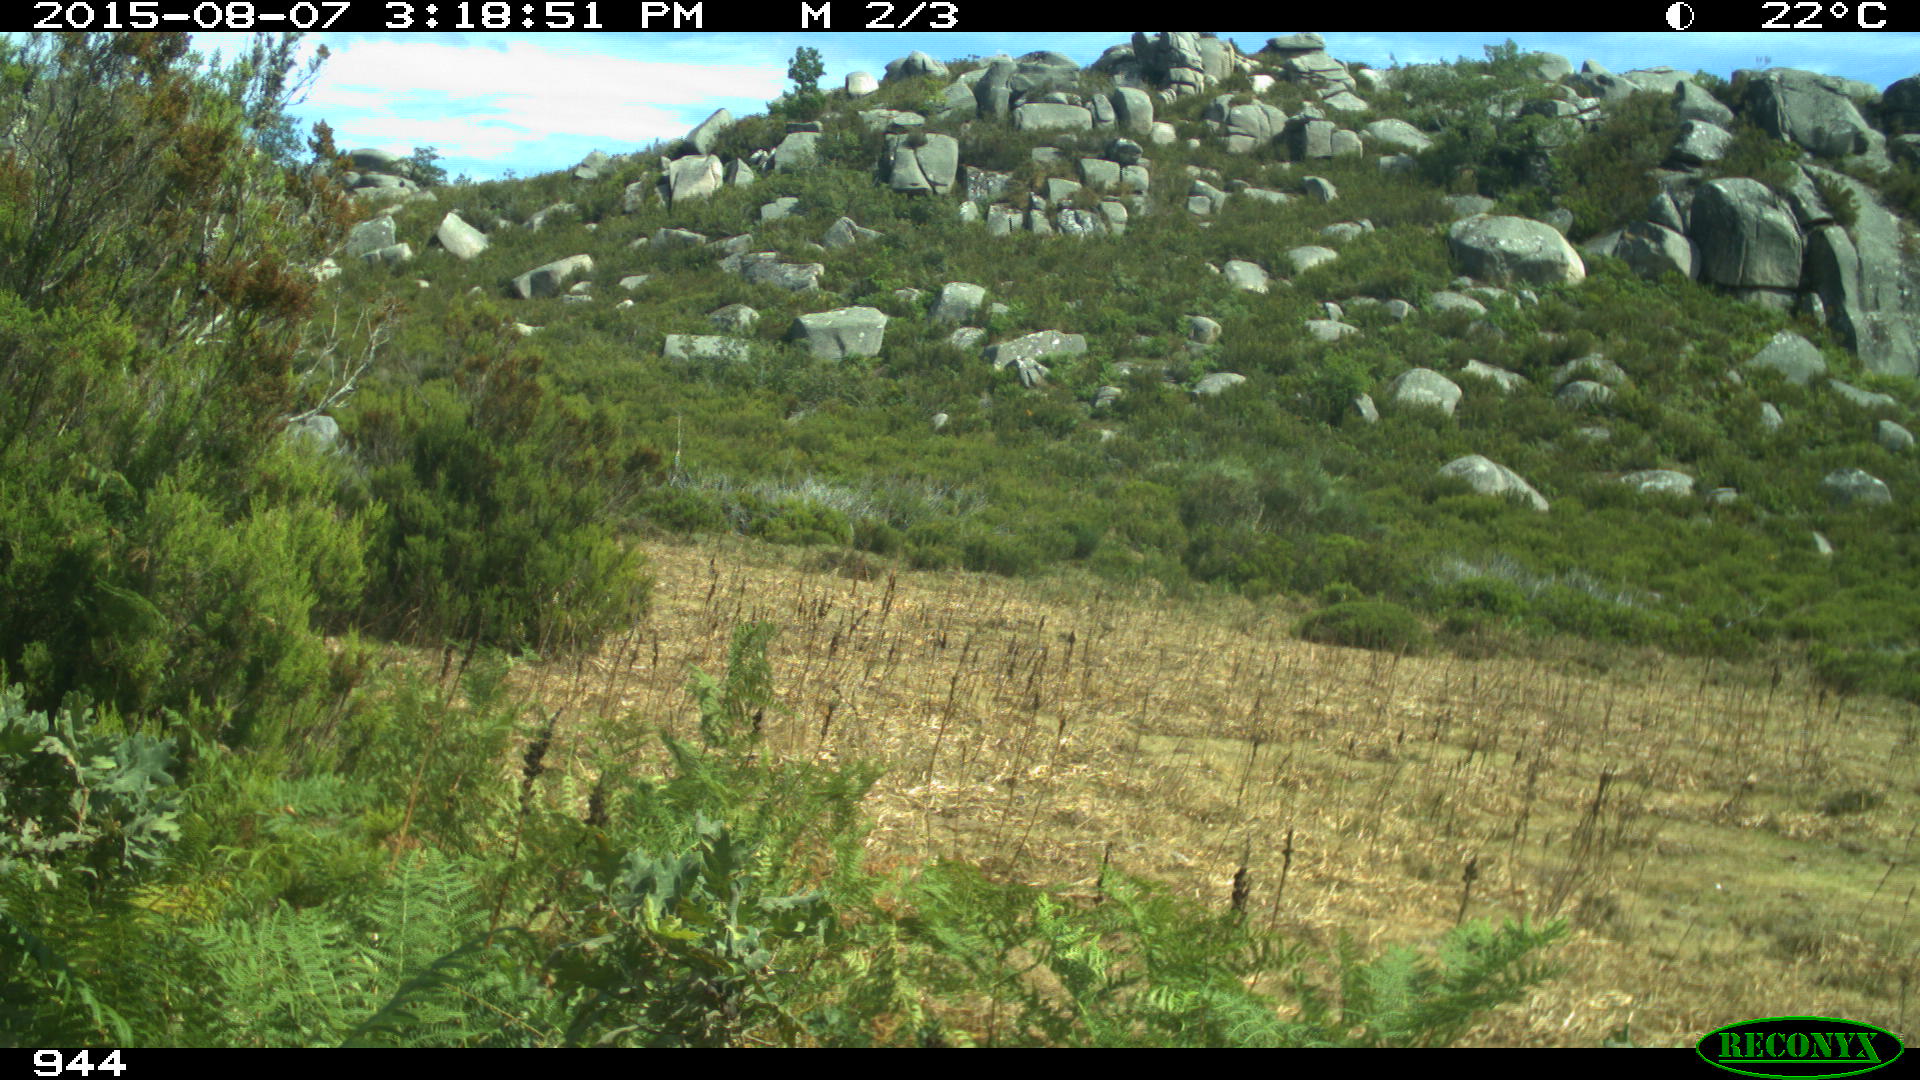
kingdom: Animalia
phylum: Chordata
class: Mammalia
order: Artiodactyla
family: Bovidae
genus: Bos
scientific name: Bos taurus
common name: Domesticated cattle
